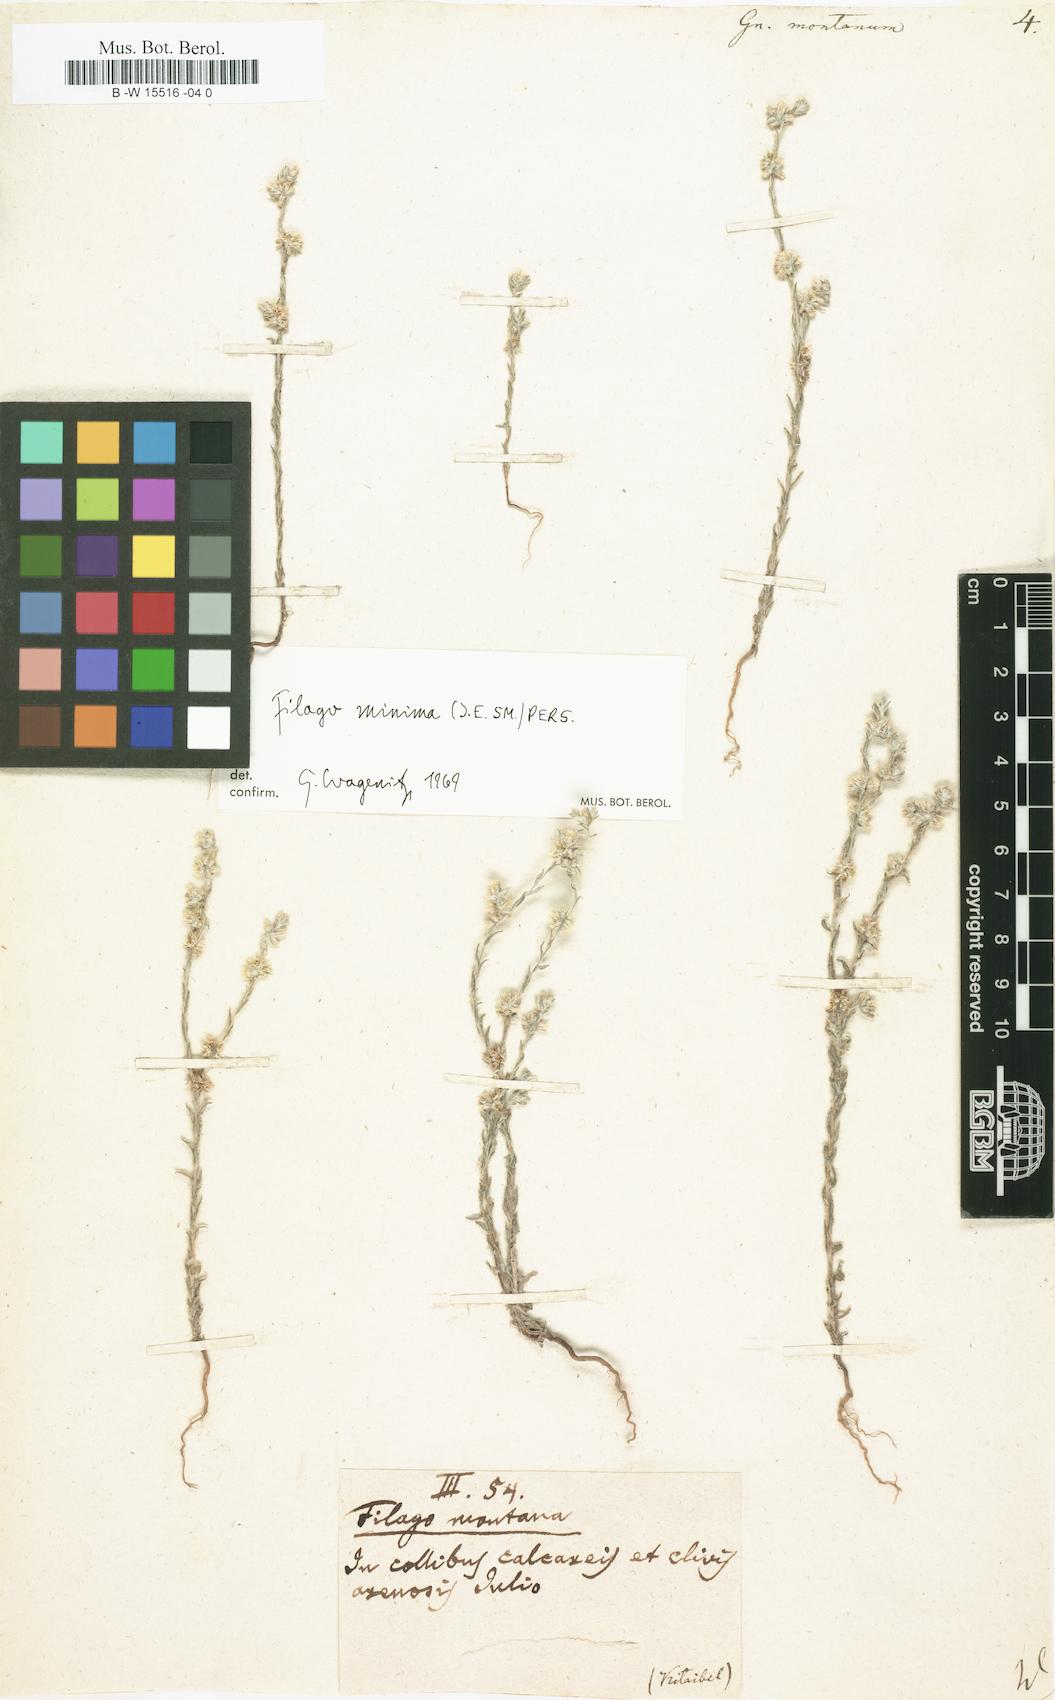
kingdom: Plantae
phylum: Tracheophyta
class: Magnoliopsida
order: Asterales
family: Asteraceae
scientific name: Asteraceae
